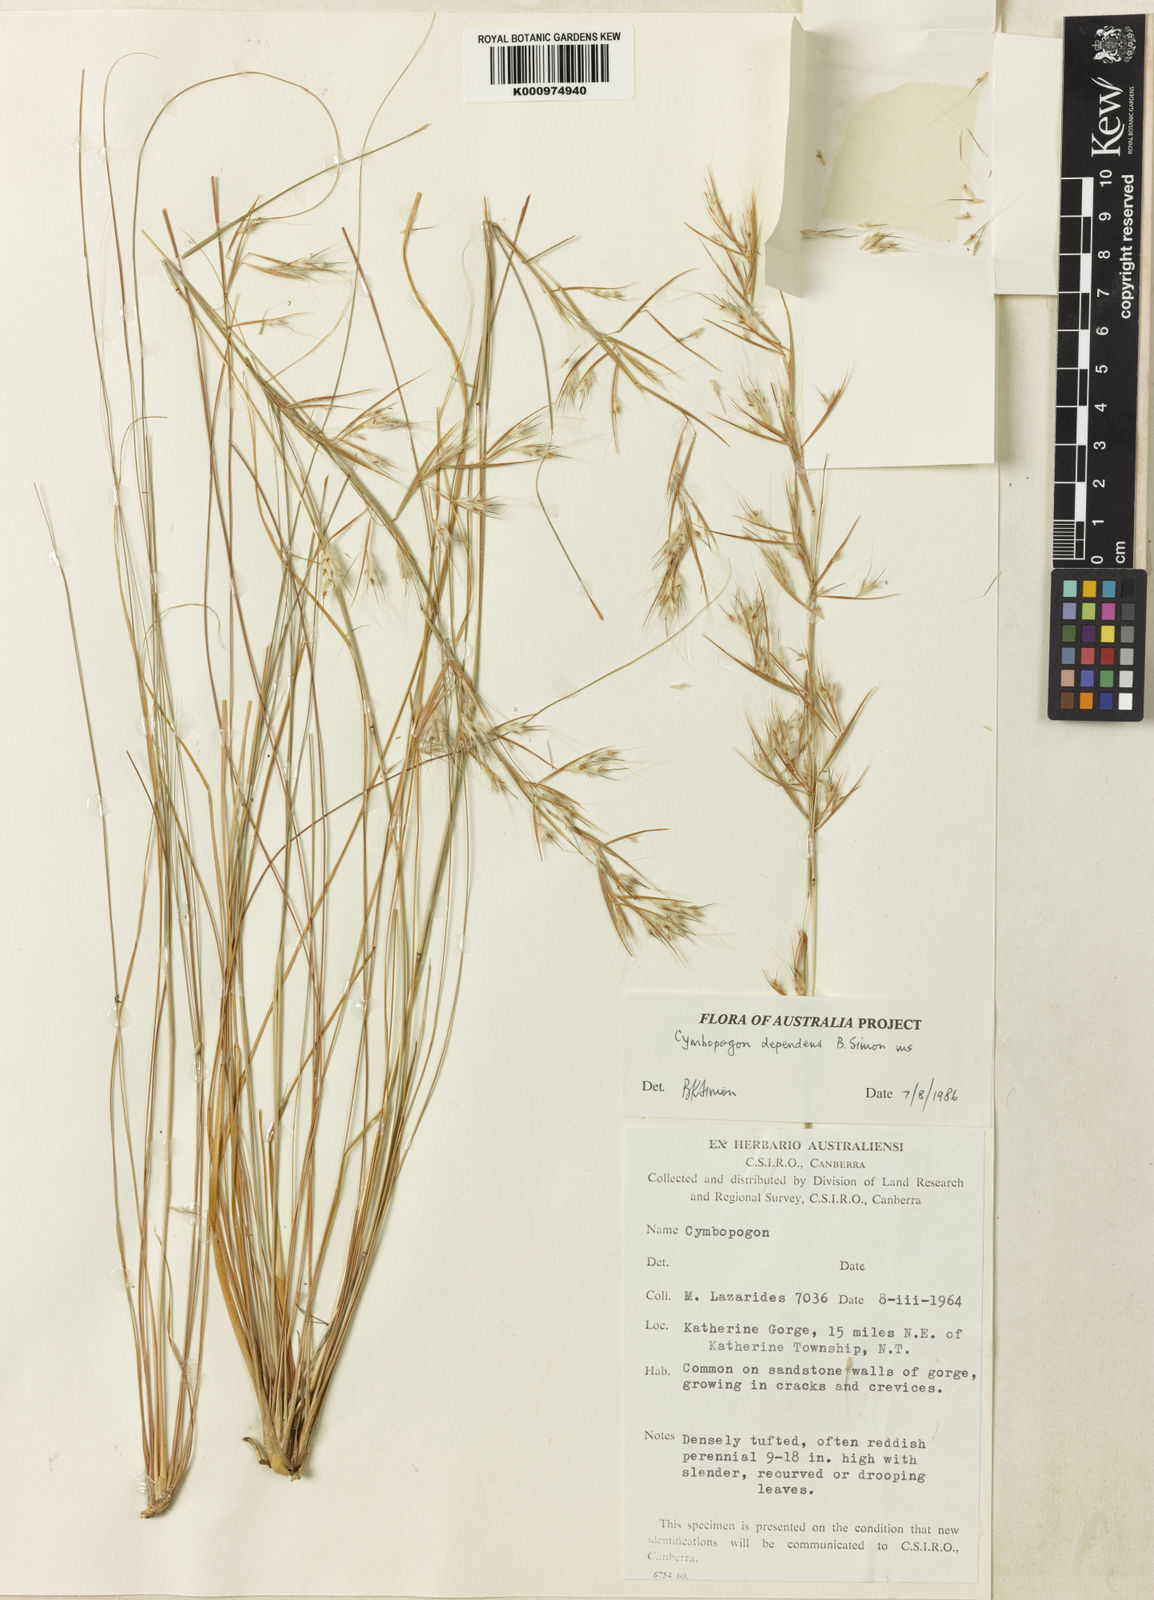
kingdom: Plantae
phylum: Tracheophyta
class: Liliopsida
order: Poales
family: Poaceae
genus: Cymbopogon
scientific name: Cymbopogon dependens
